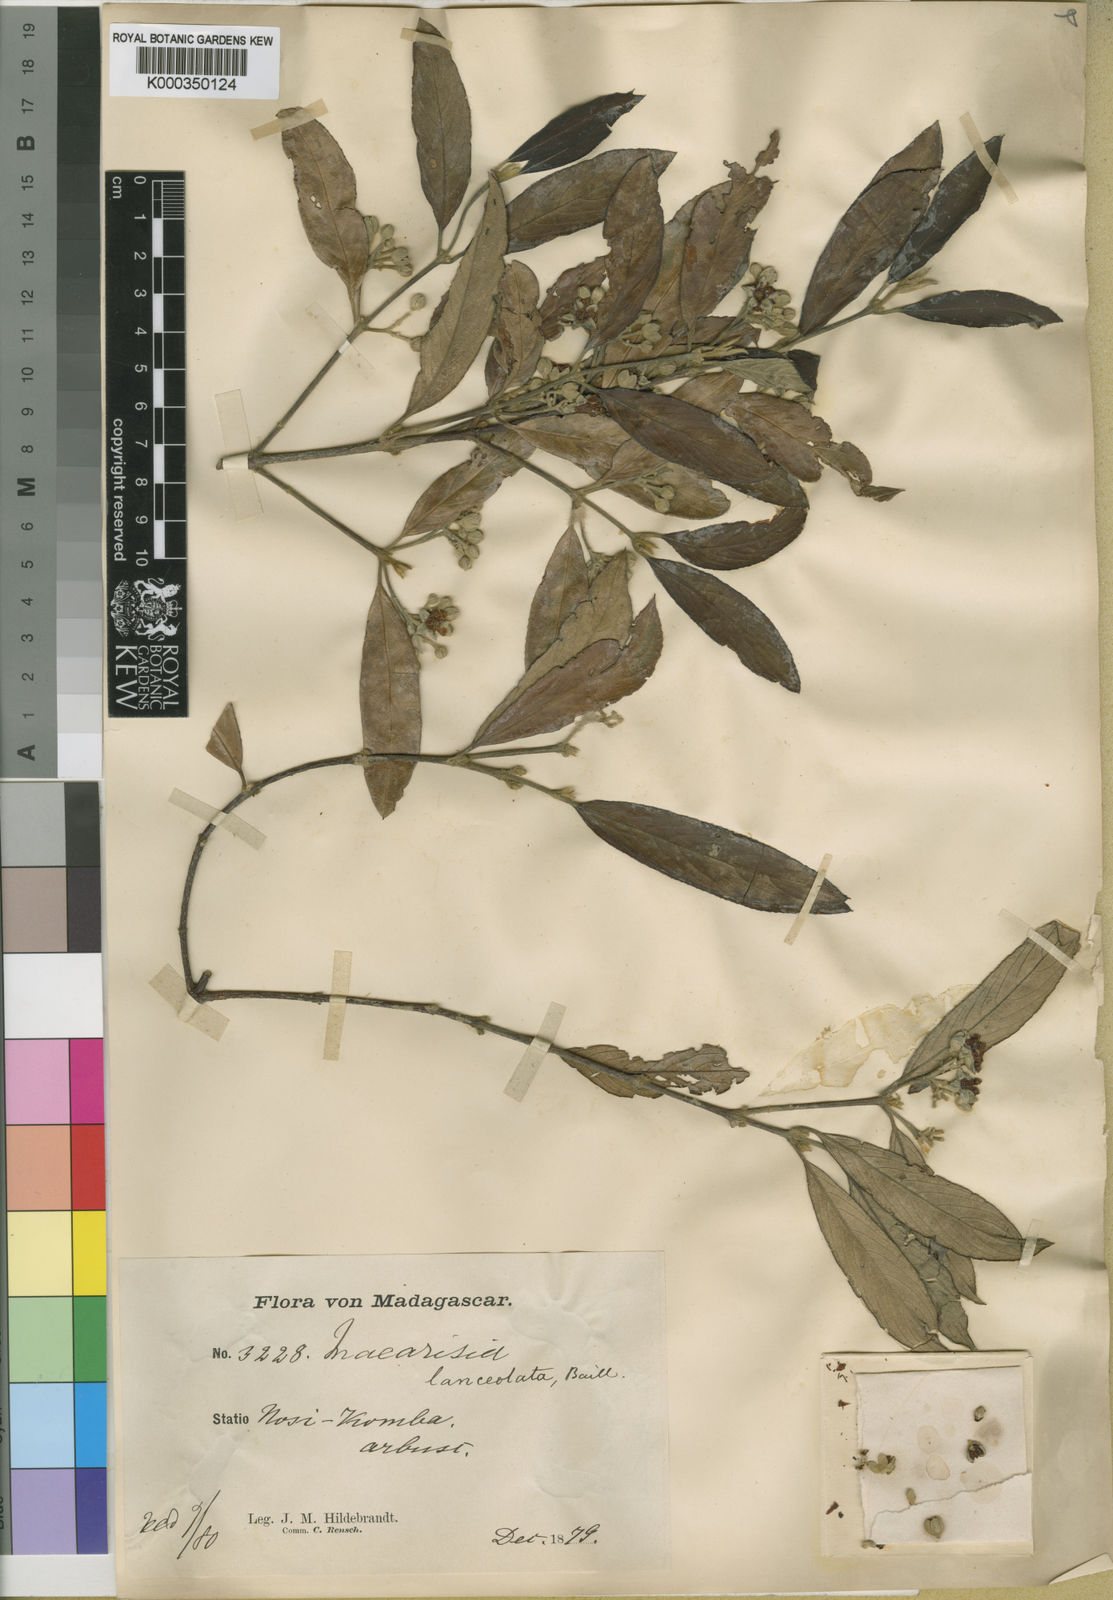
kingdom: Plantae
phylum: Tracheophyta
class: Magnoliopsida
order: Malpighiales
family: Rhizophoraceae
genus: Macarisia
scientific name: Macarisia lanceolata
